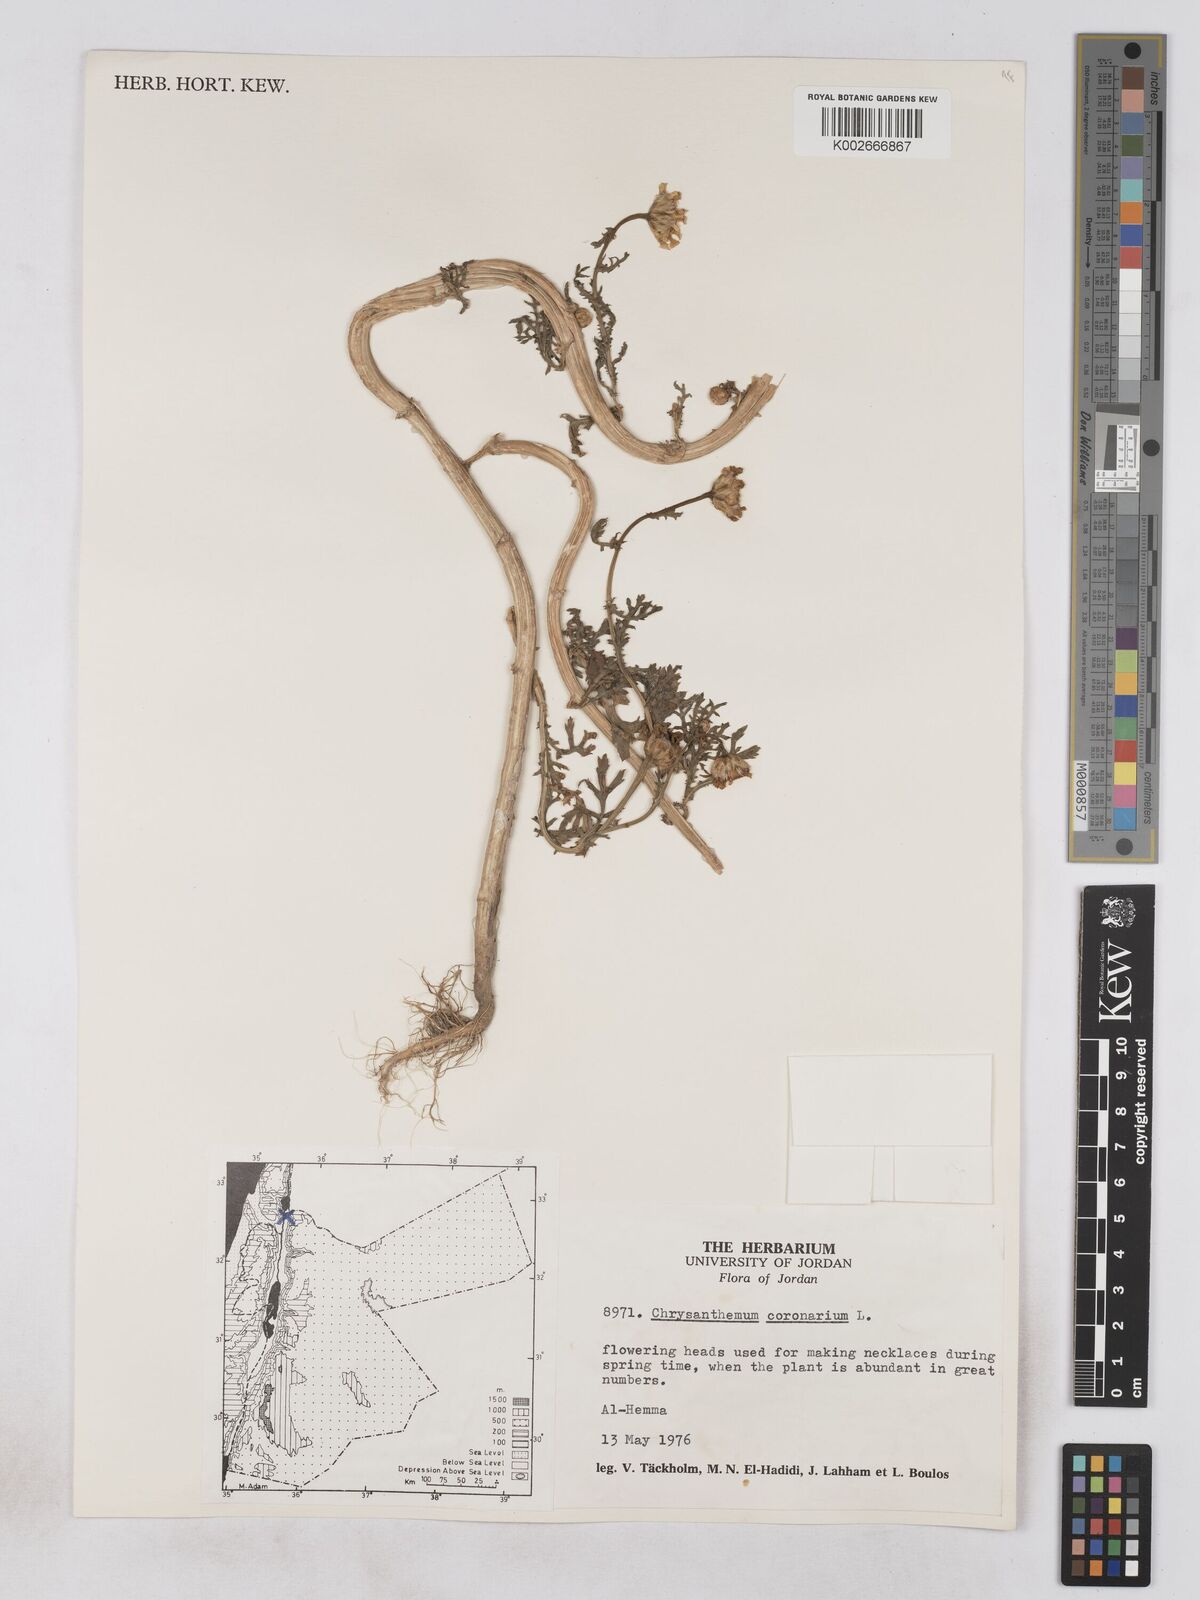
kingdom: Plantae
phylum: Tracheophyta
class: Magnoliopsida
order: Asterales
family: Asteraceae
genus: Glebionis
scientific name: Glebionis coronaria
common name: Crowndaisy
